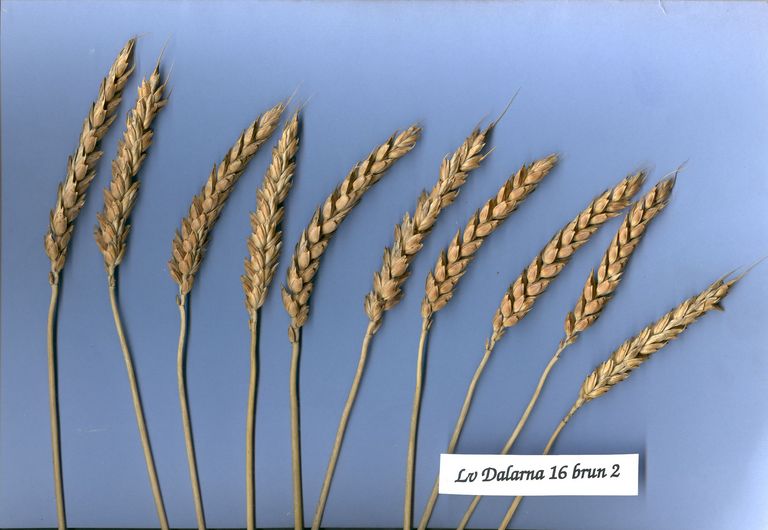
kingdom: Plantae
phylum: Tracheophyta
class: Liliopsida
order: Poales
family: Poaceae
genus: Triticum
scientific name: Triticum aestivum
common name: Common wheat
